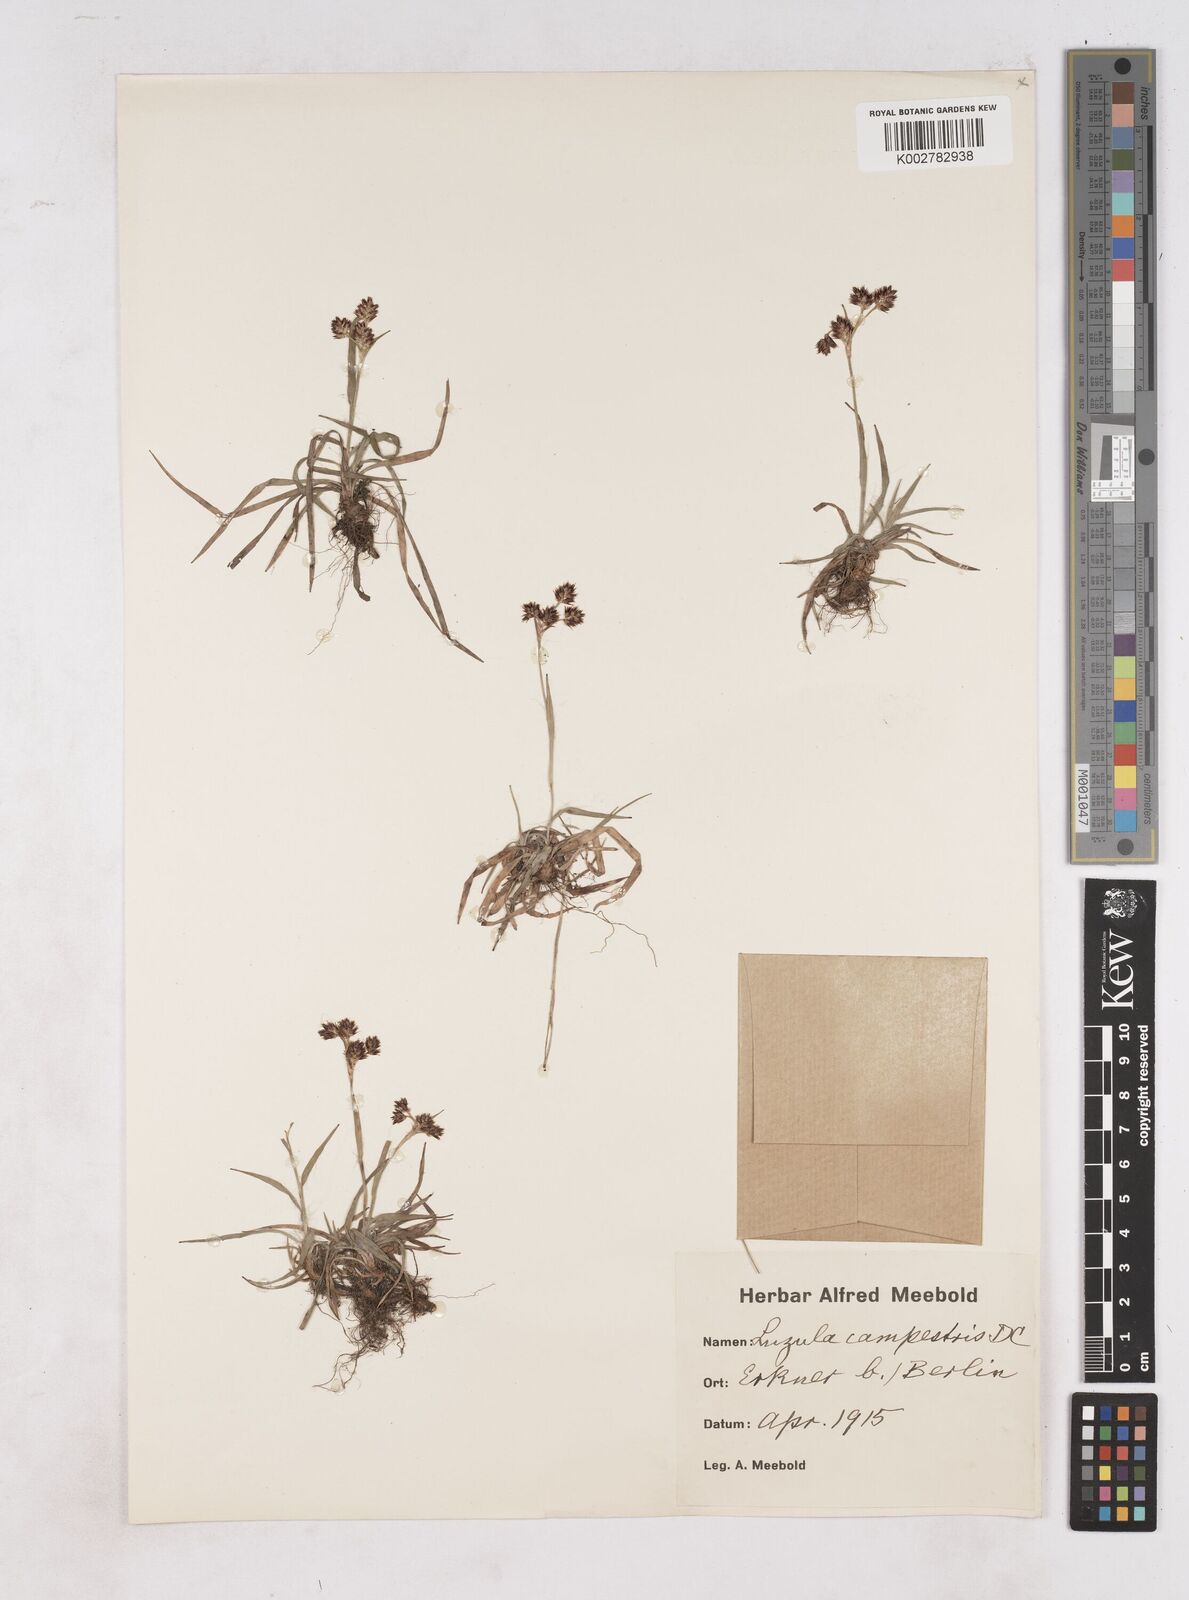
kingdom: Plantae
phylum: Tracheophyta
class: Liliopsida
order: Poales
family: Juncaceae
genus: Luzula
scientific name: Luzula campestris
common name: Field wood-rush
